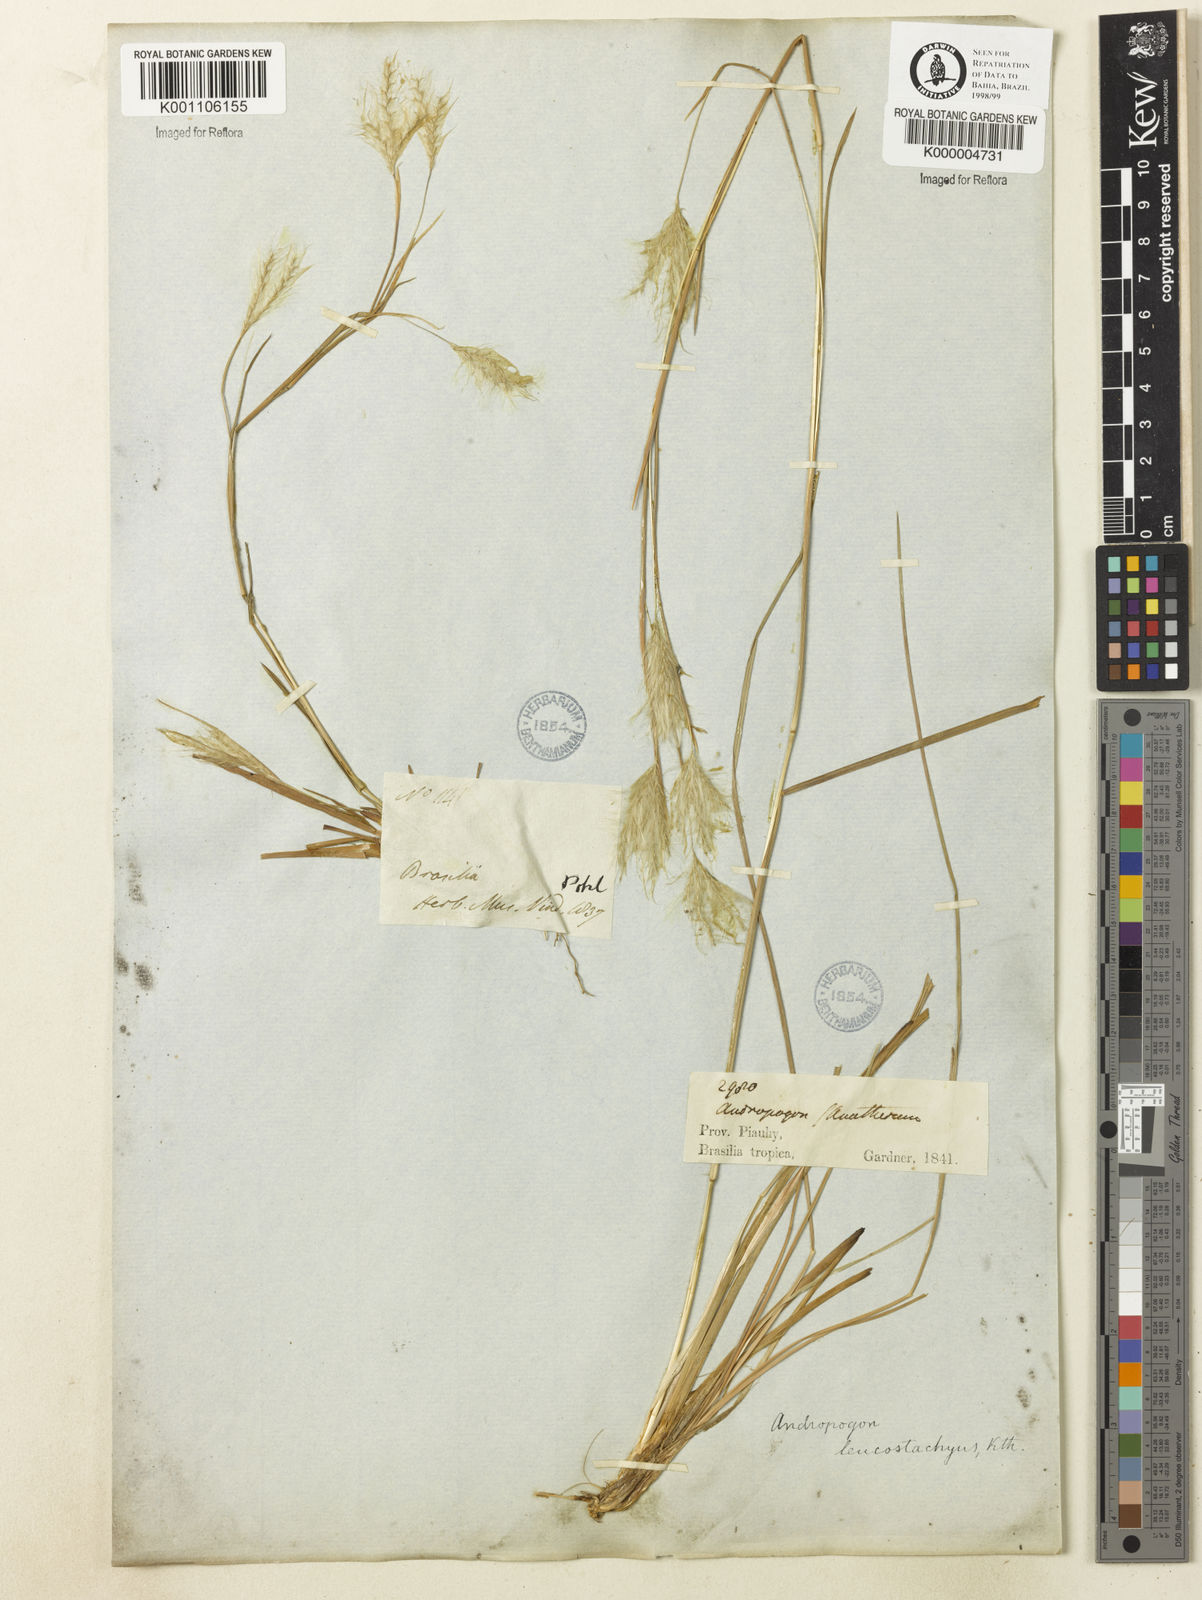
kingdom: Plantae
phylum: Tracheophyta
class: Liliopsida
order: Poales
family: Poaceae
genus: Andropogon
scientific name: Andropogon leucostachyus
